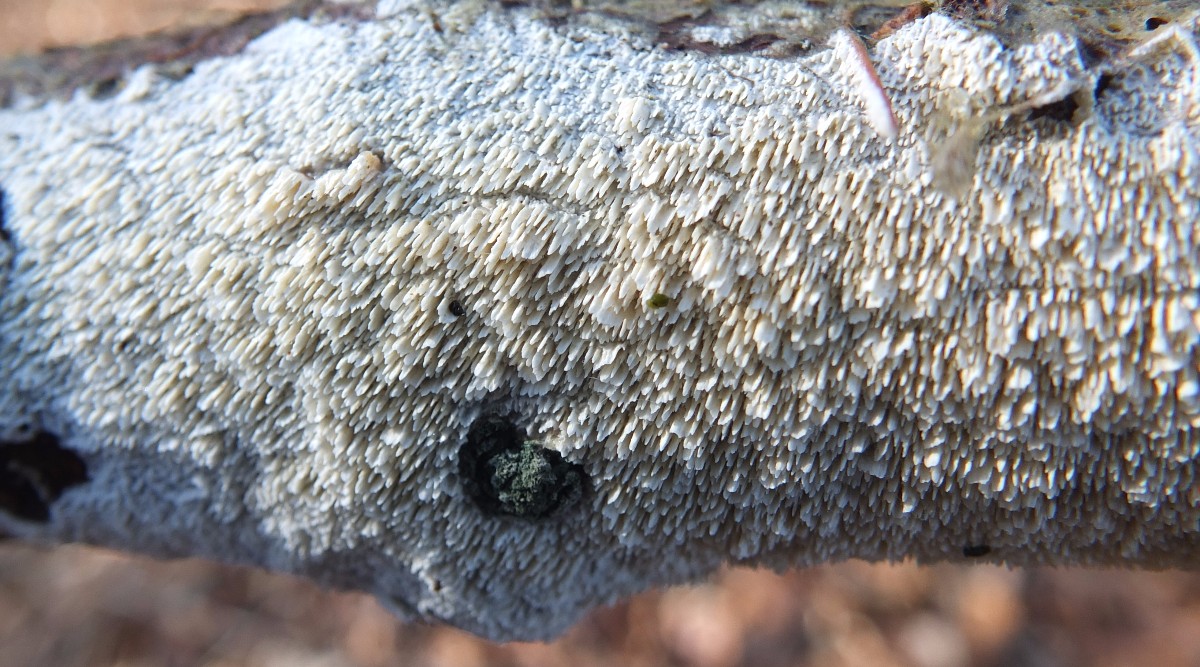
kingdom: Fungi
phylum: Basidiomycota
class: Agaricomycetes
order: Corticiales
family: Corticiaceae
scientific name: Corticiaceae
